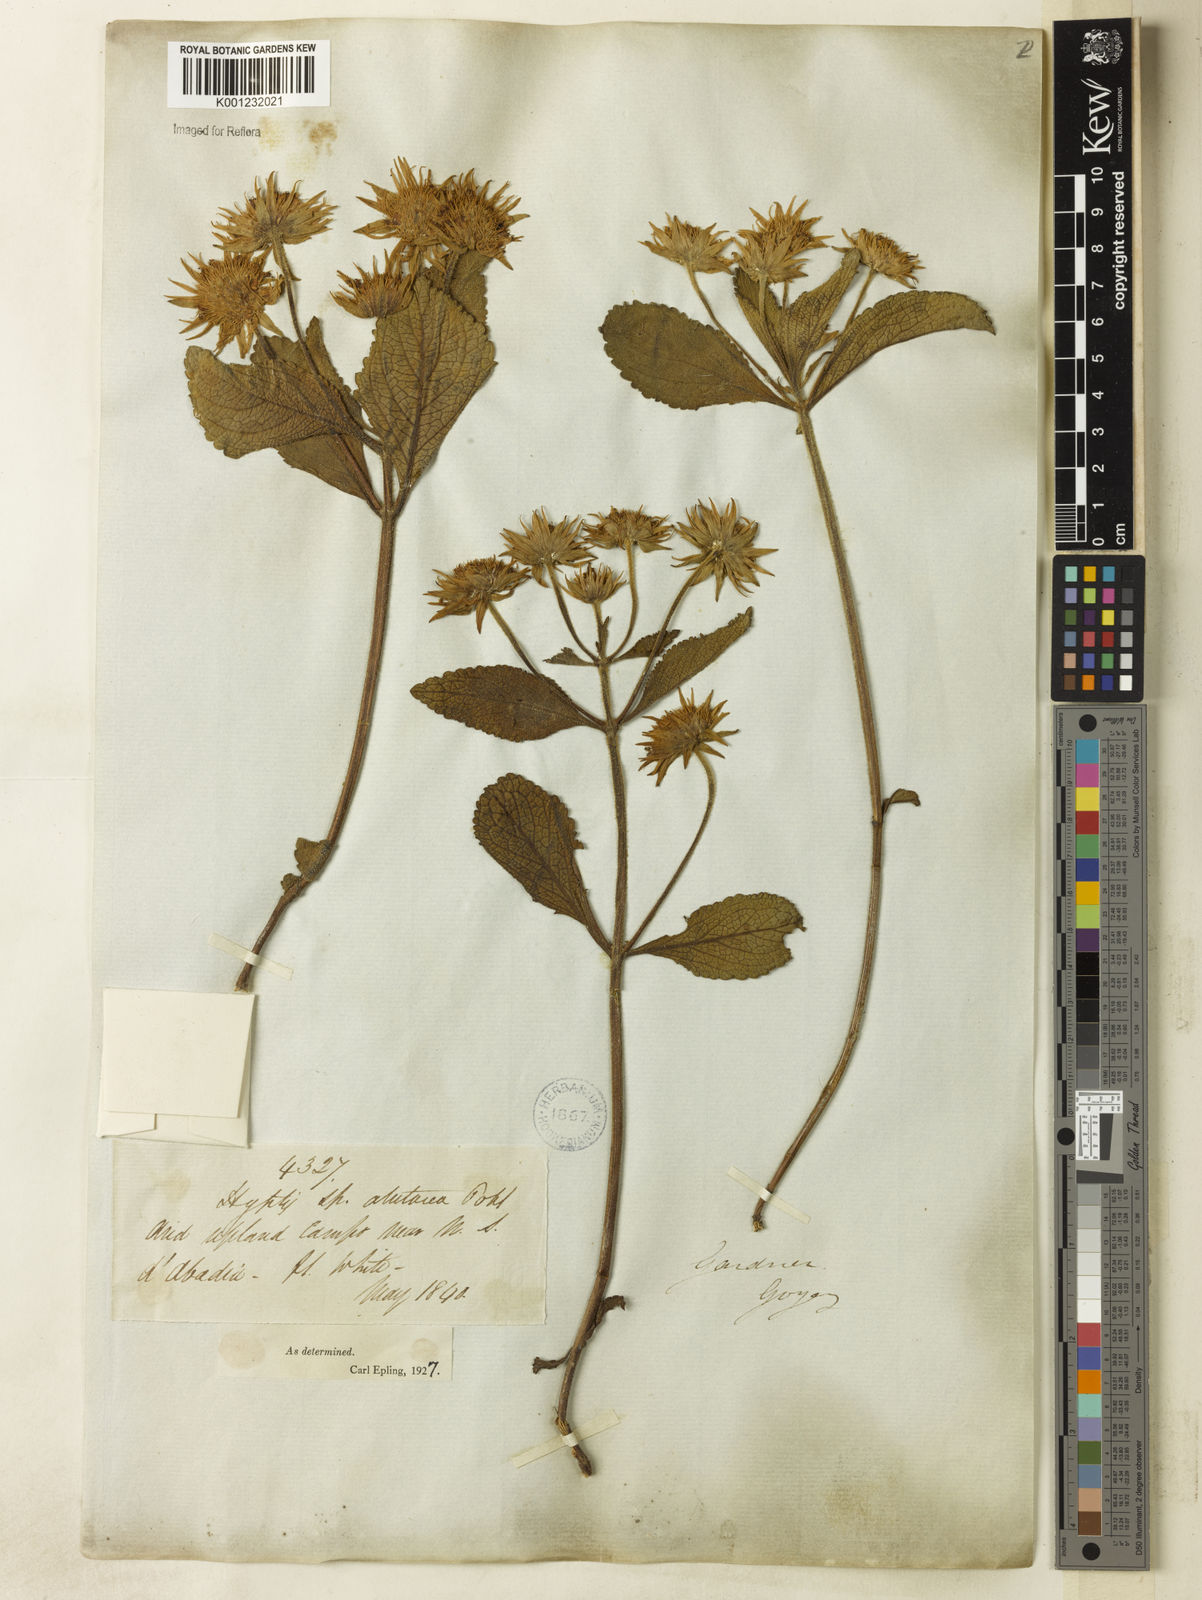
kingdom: Plantae
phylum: Tracheophyta
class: Magnoliopsida
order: Lamiales
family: Lamiaceae
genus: Hyptis
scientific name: Hyptis alutacea
